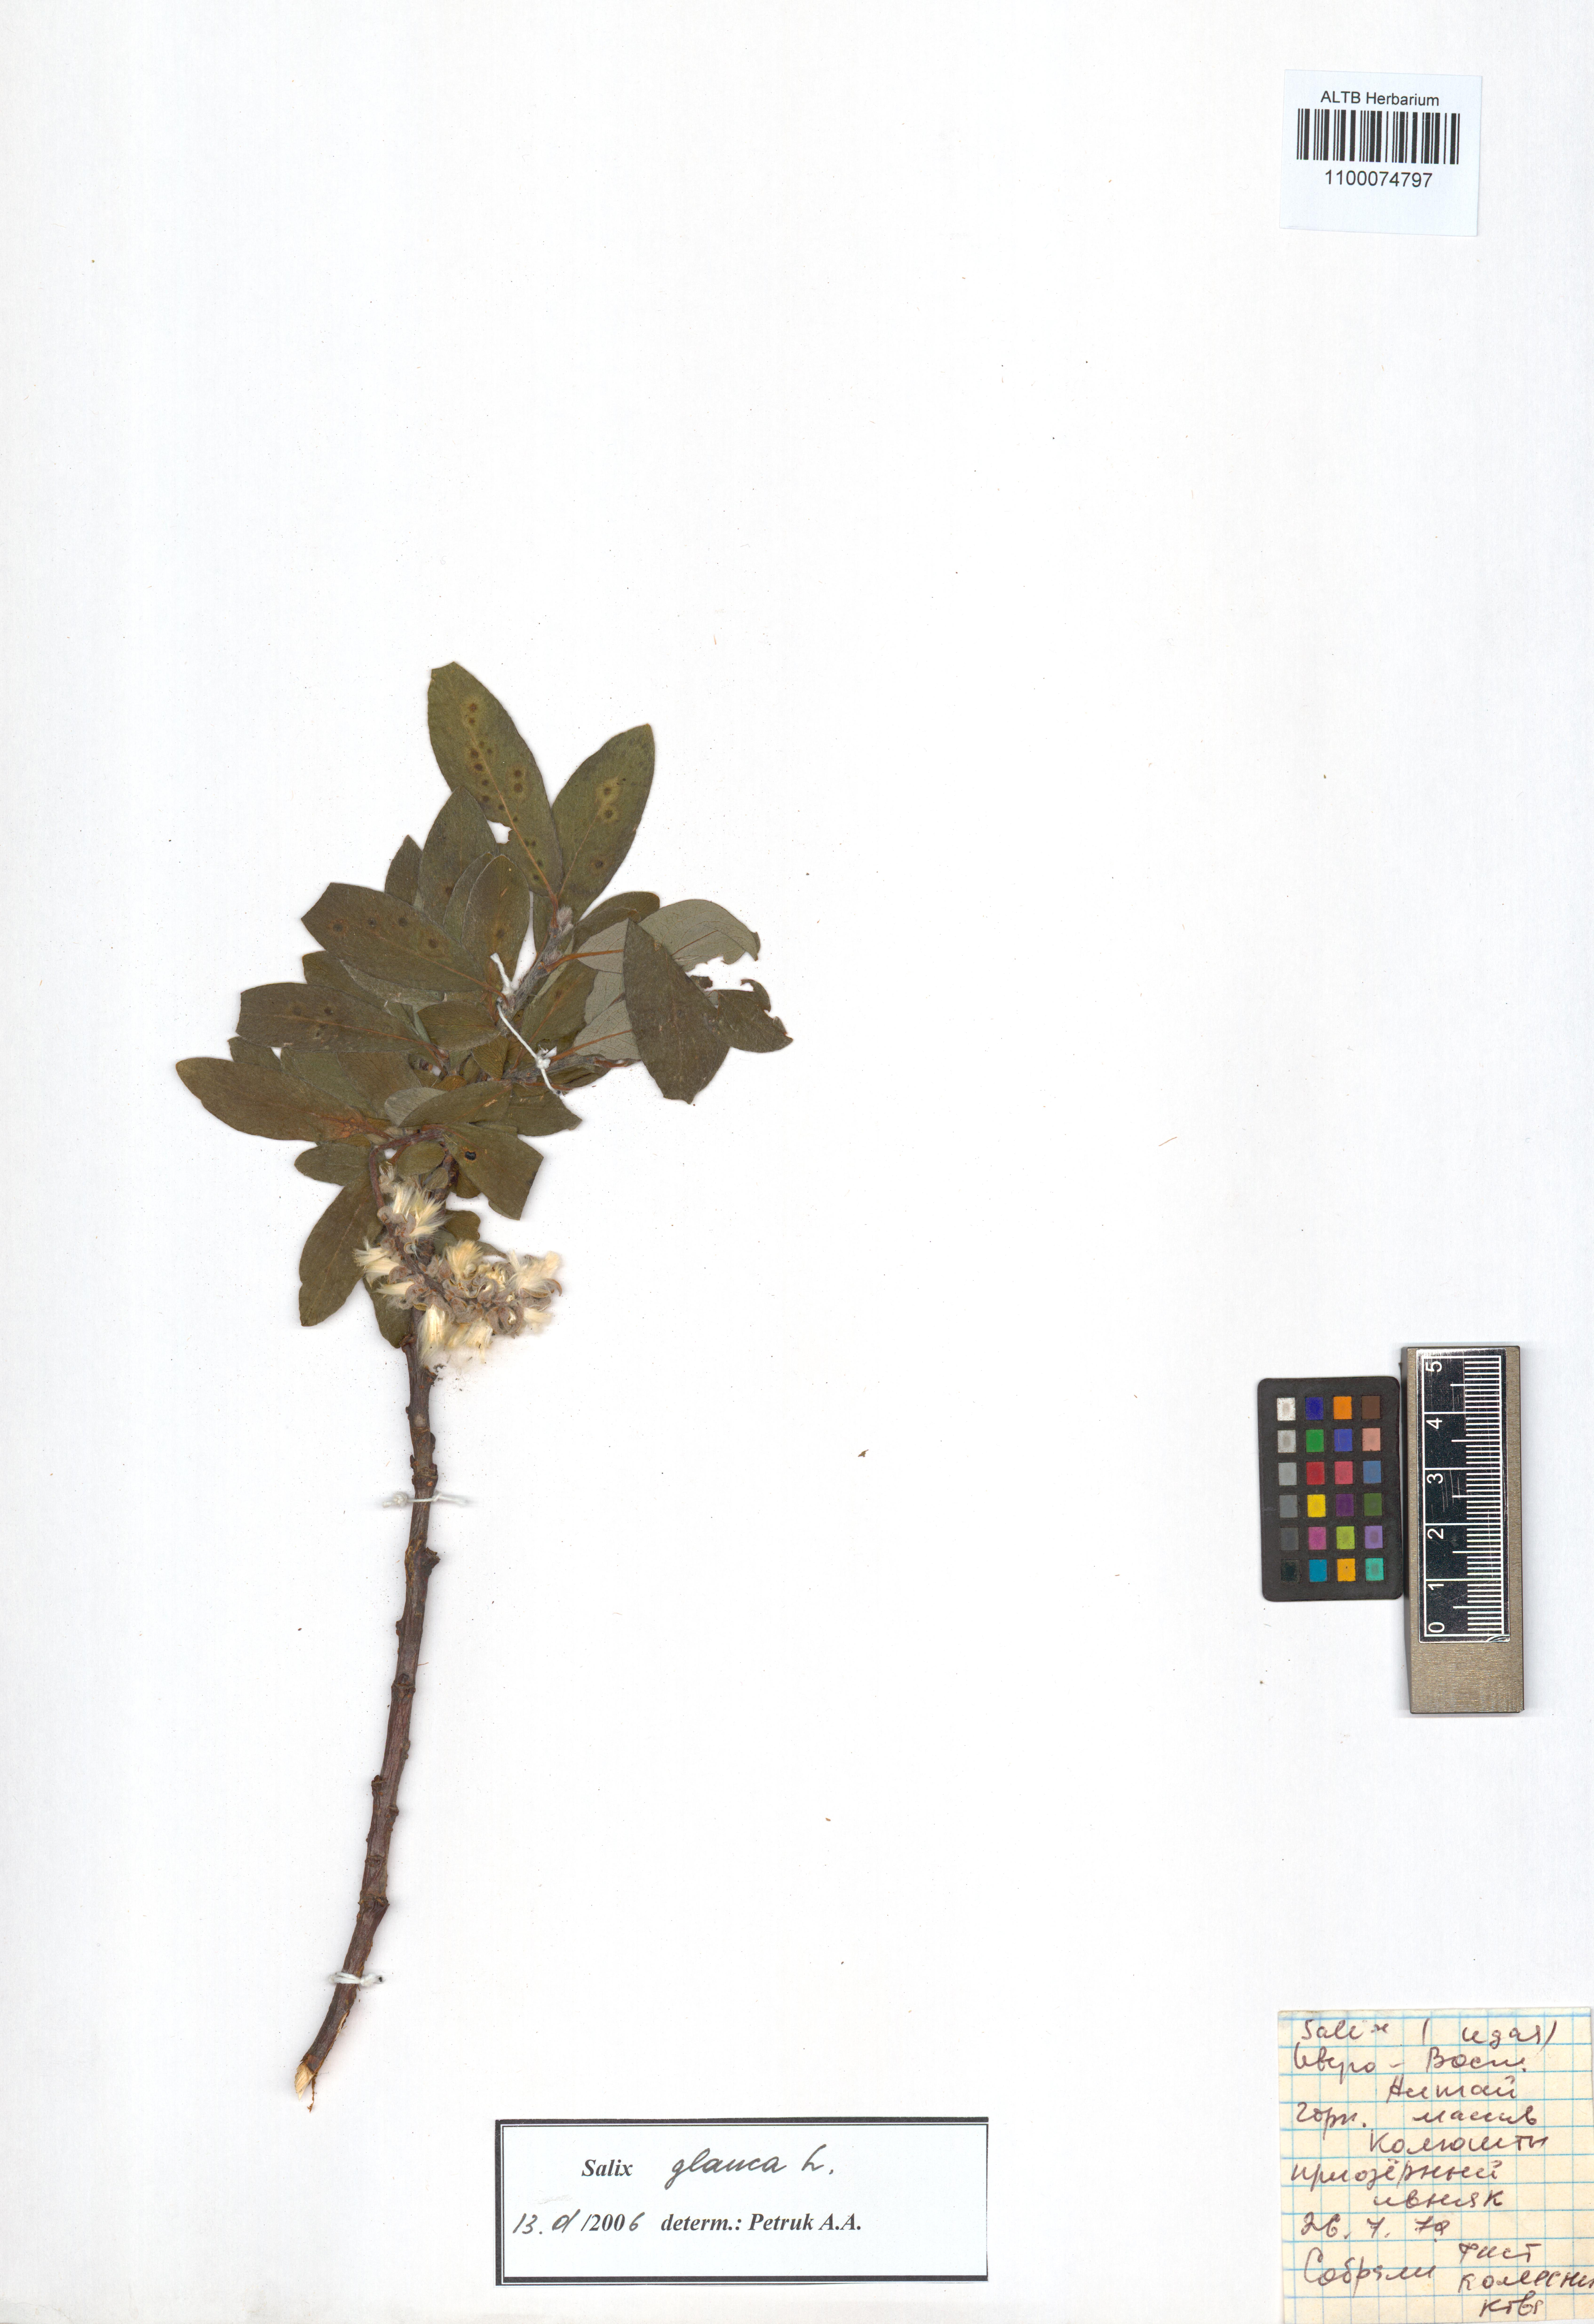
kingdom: Plantae
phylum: Tracheophyta
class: Magnoliopsida
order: Malpighiales
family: Salicaceae
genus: Salix
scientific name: Salix glauca
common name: Glaucous willow
